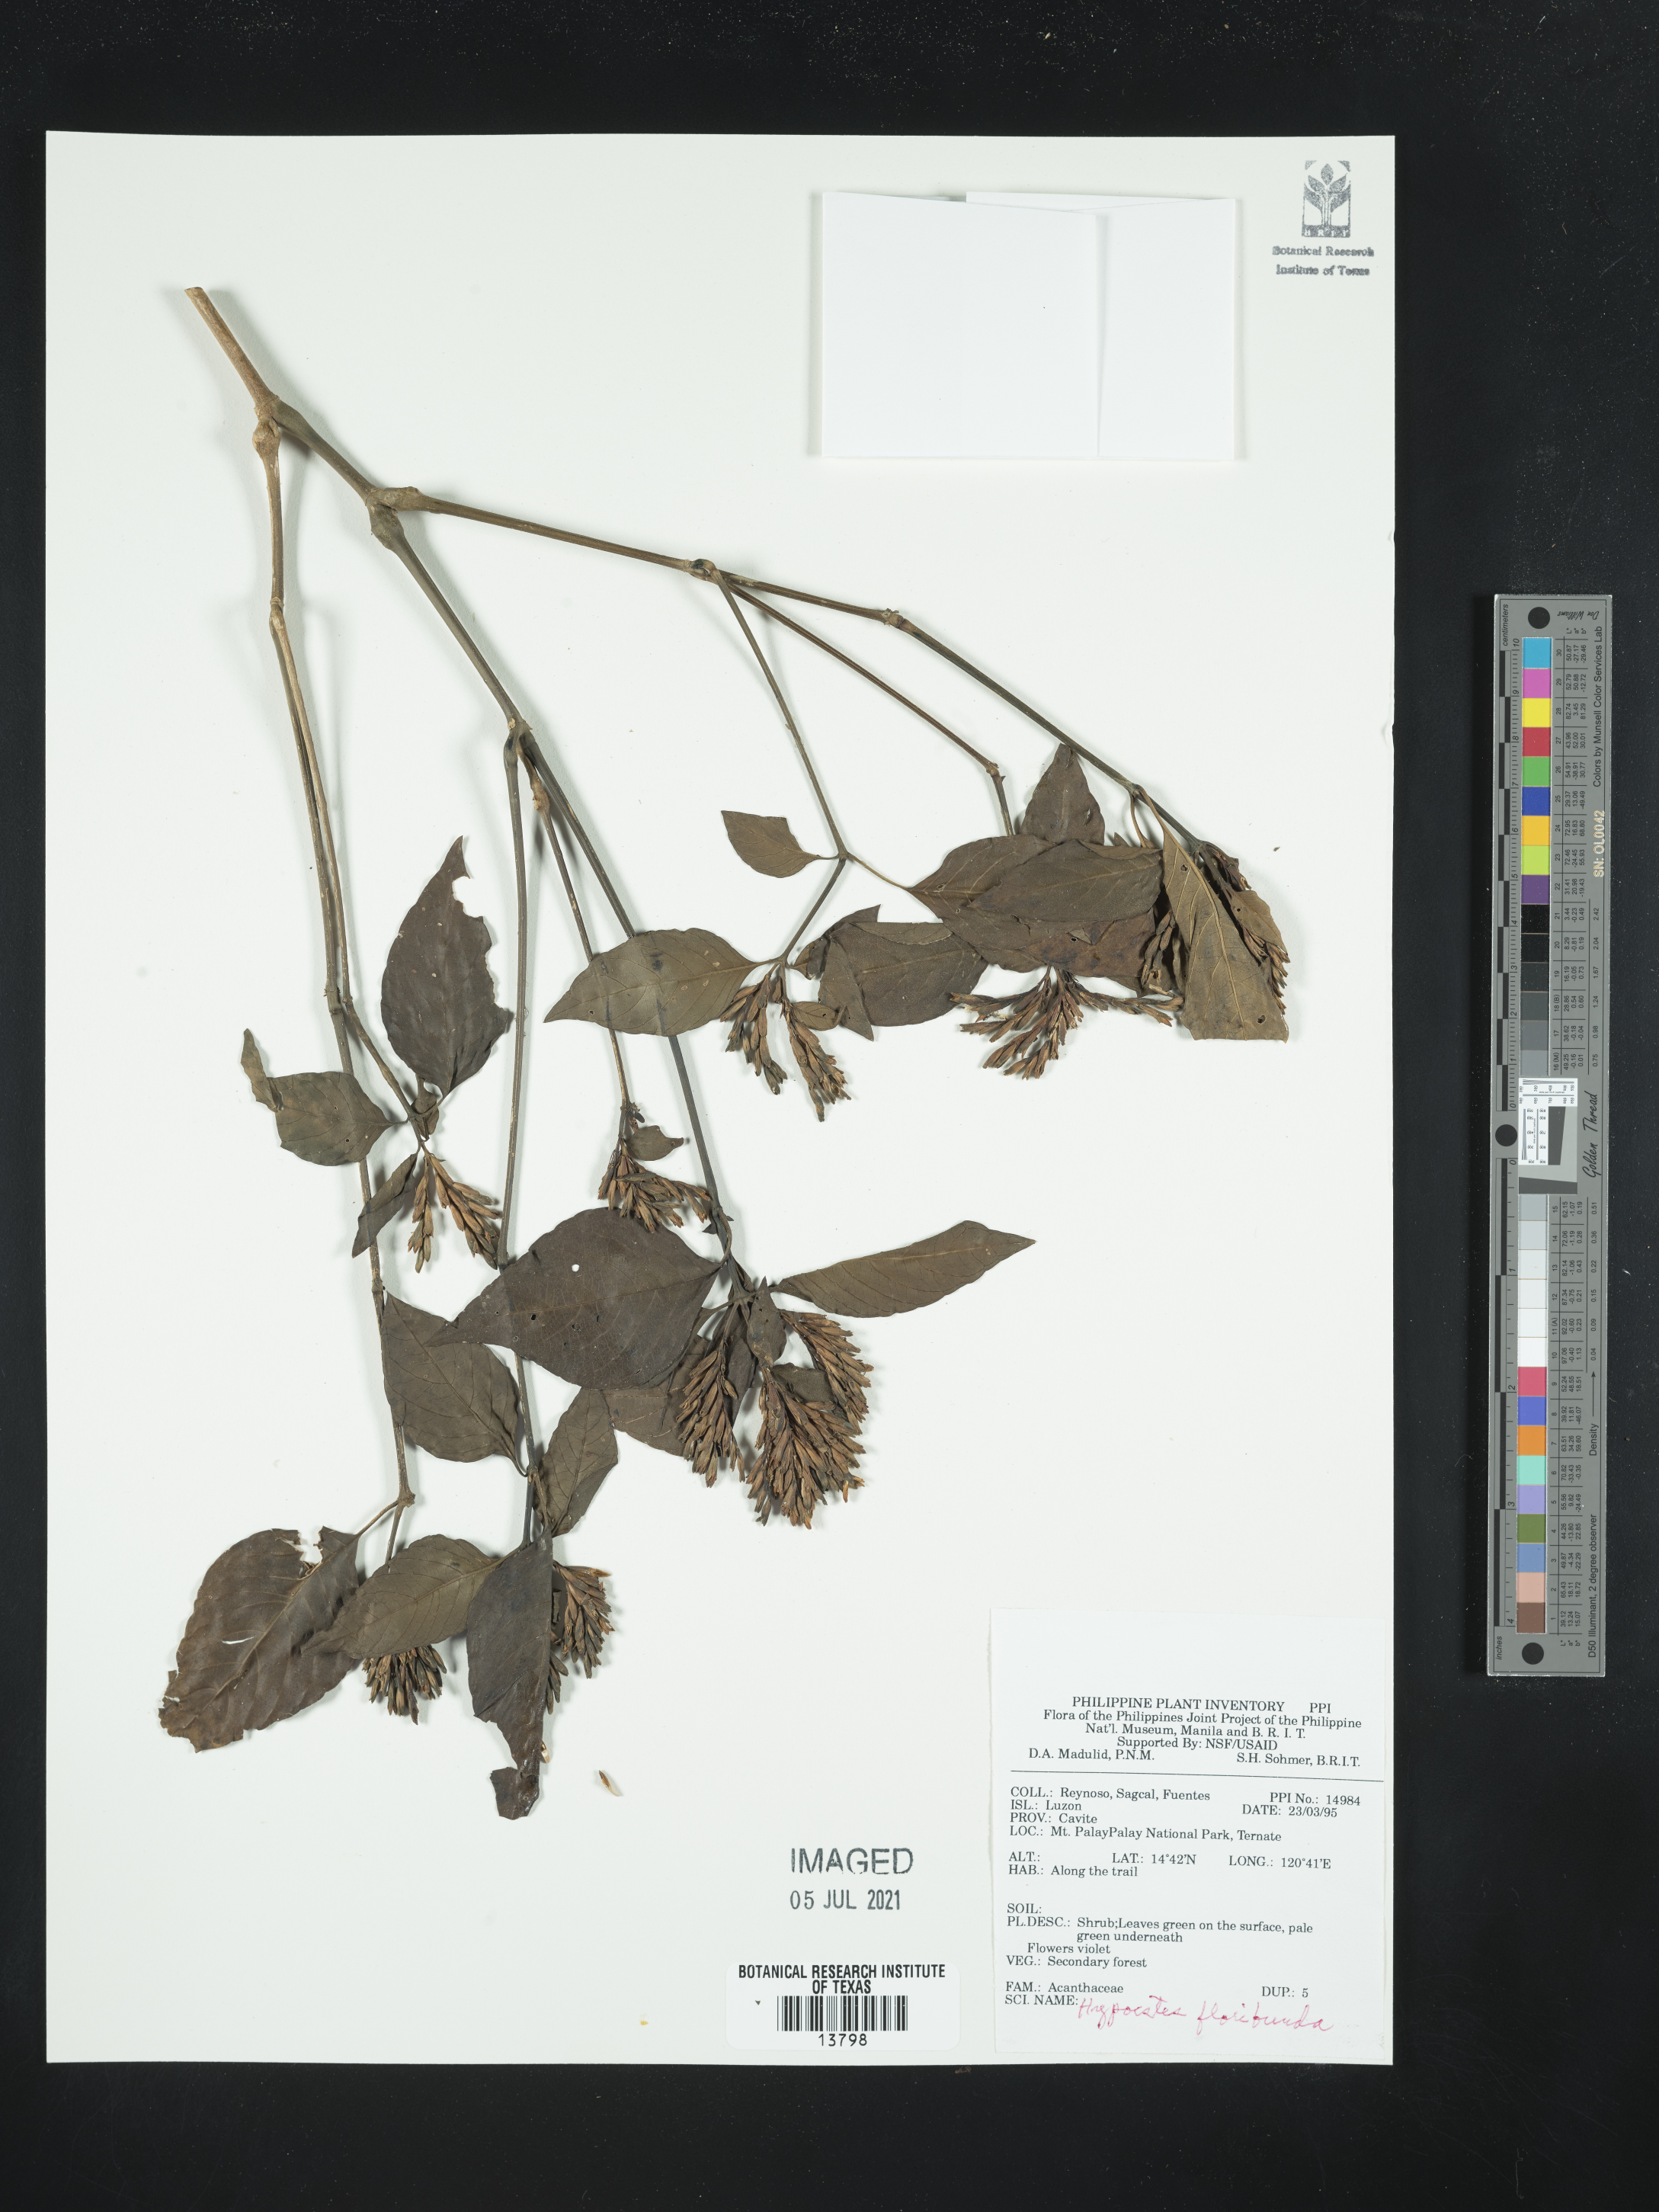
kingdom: Plantae
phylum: Tracheophyta
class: Magnoliopsida
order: Lamiales
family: Acanthaceae
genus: Hypoestes
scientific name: Hypoestes floribunda
